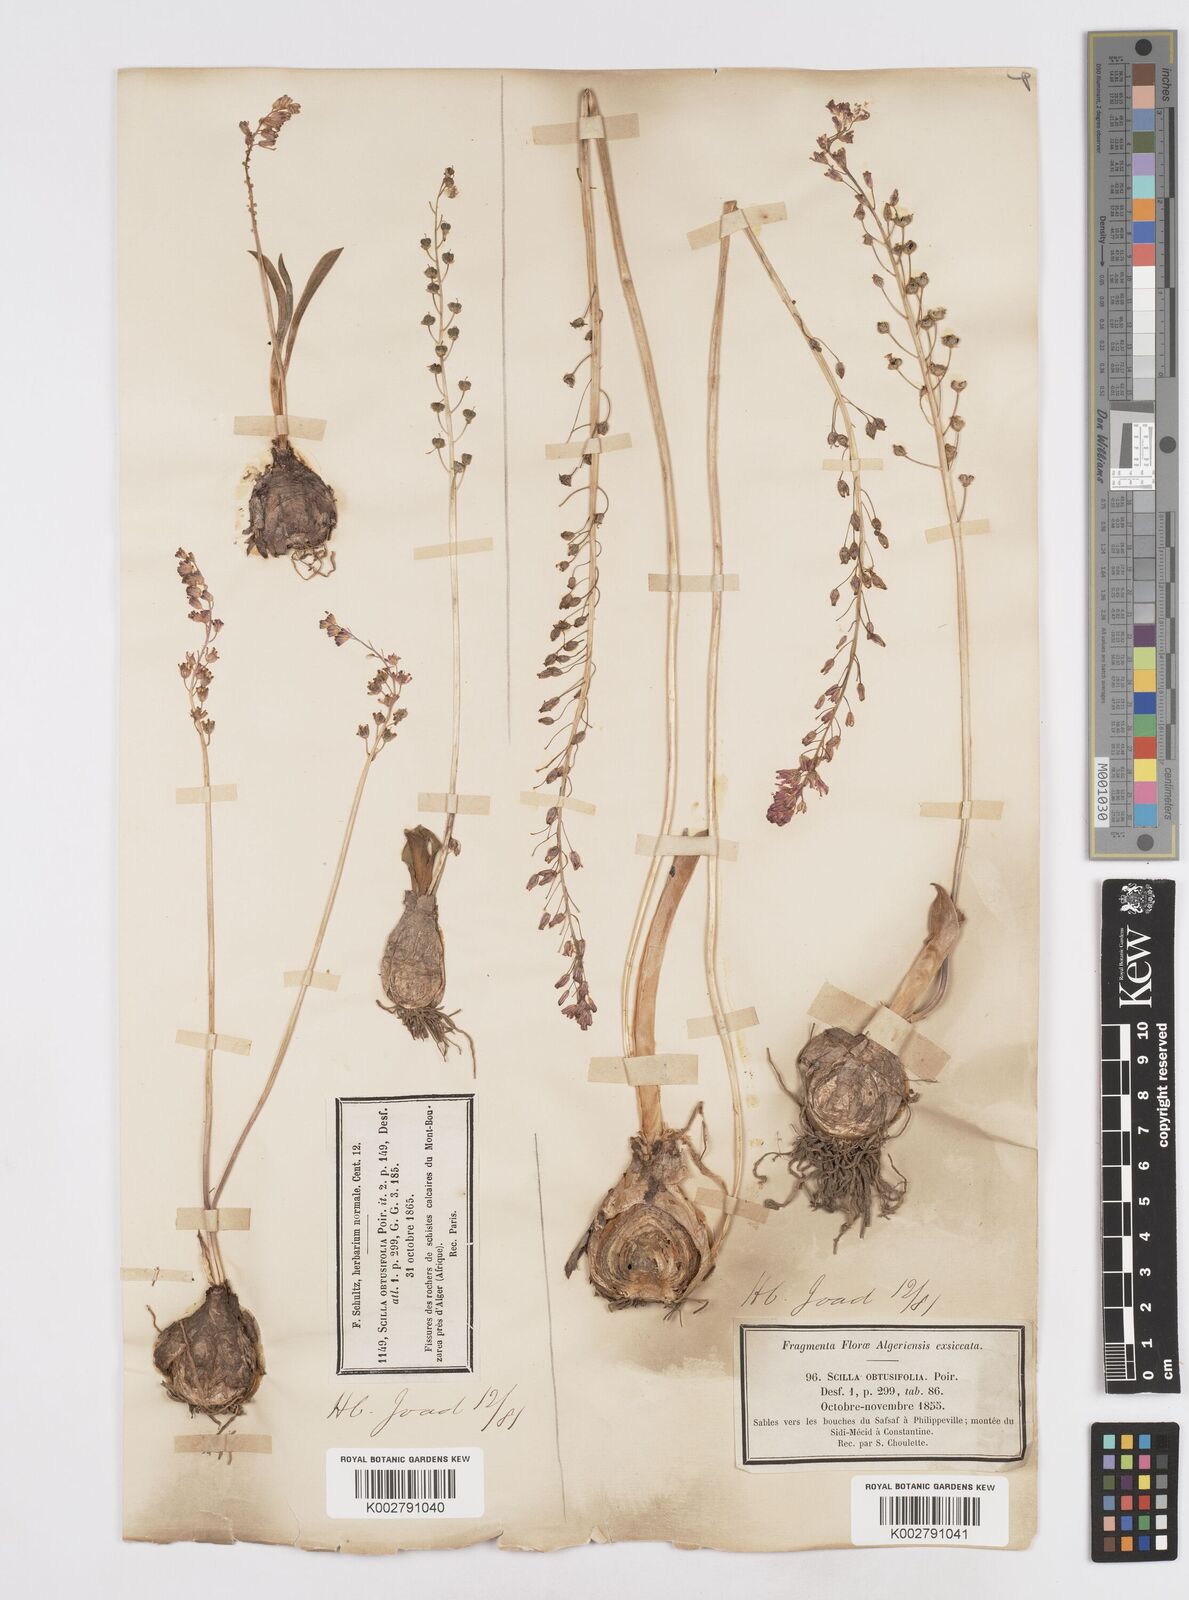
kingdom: Plantae
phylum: Tracheophyta
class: Liliopsida
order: Asparagales
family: Asparagaceae
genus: Prospero
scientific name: Prospero obtusifolium
